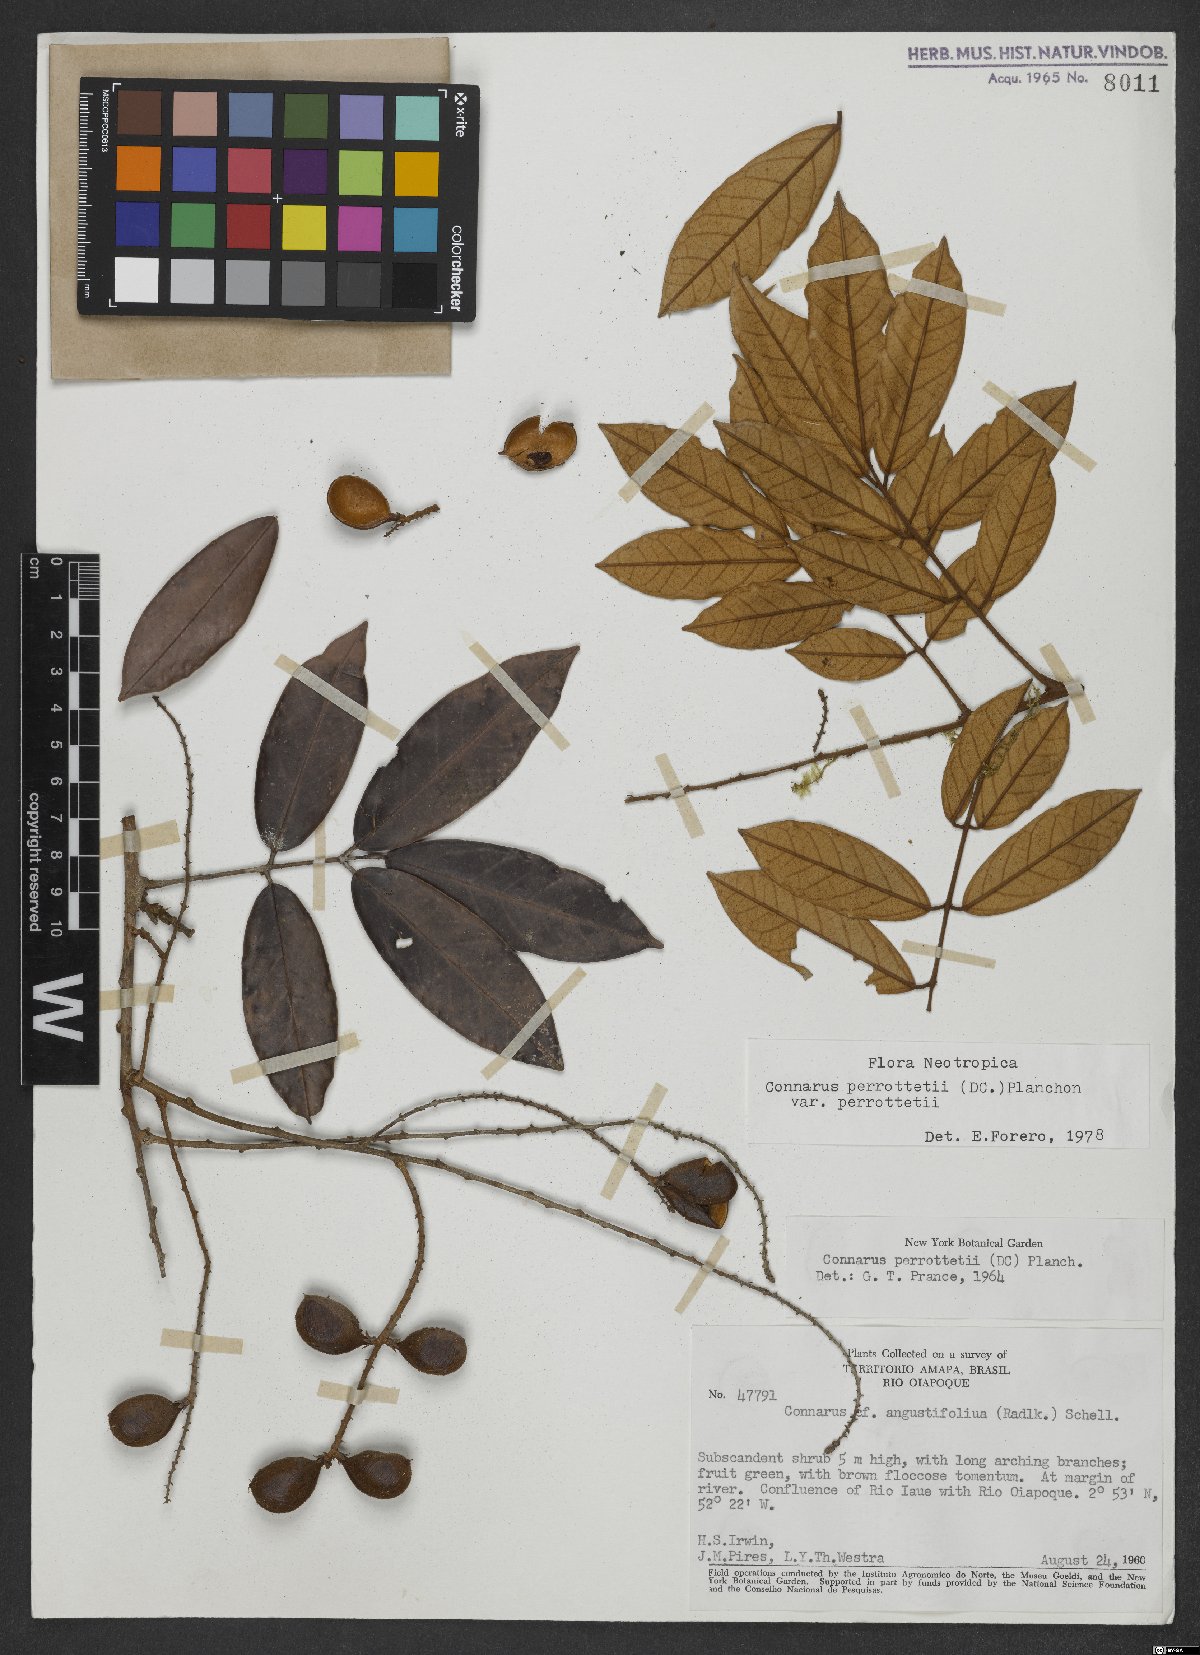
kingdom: Plantae
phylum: Tracheophyta
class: Magnoliopsida
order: Oxalidales
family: Connaraceae
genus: Connarus
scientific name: Connarus perrottetii
